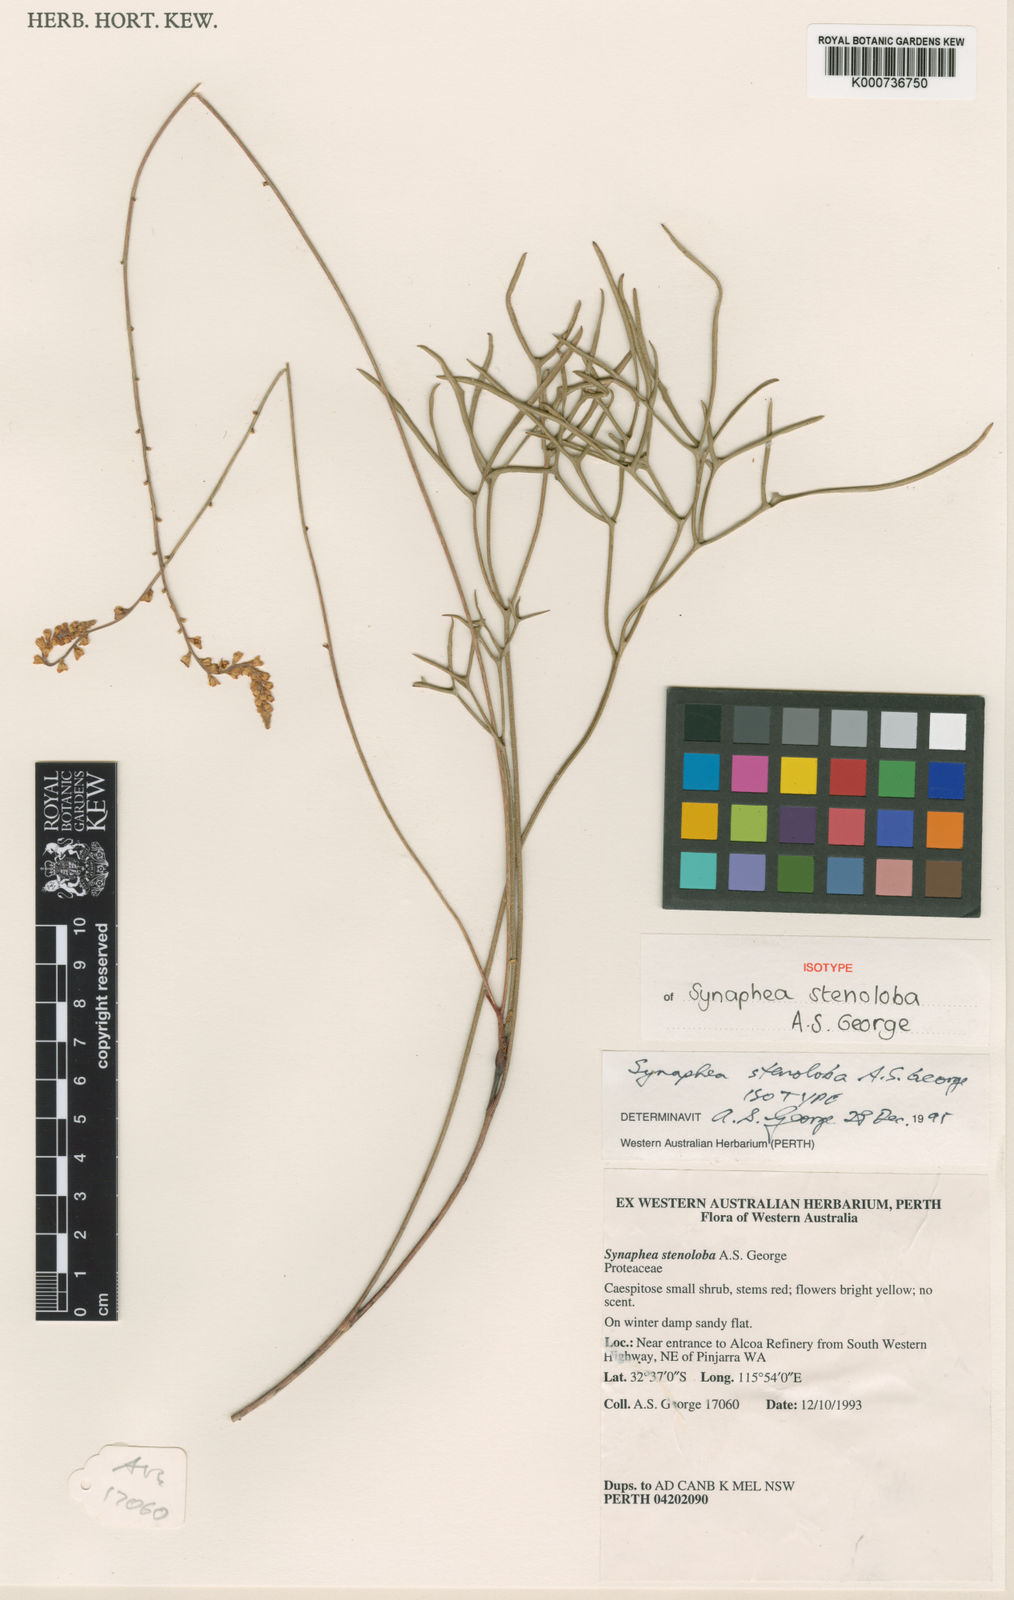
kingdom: Plantae
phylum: Tracheophyta
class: Magnoliopsida
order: Proteales
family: Proteaceae
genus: Synaphea
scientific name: Synaphea stenoloba
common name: Dwellingup synaphea
